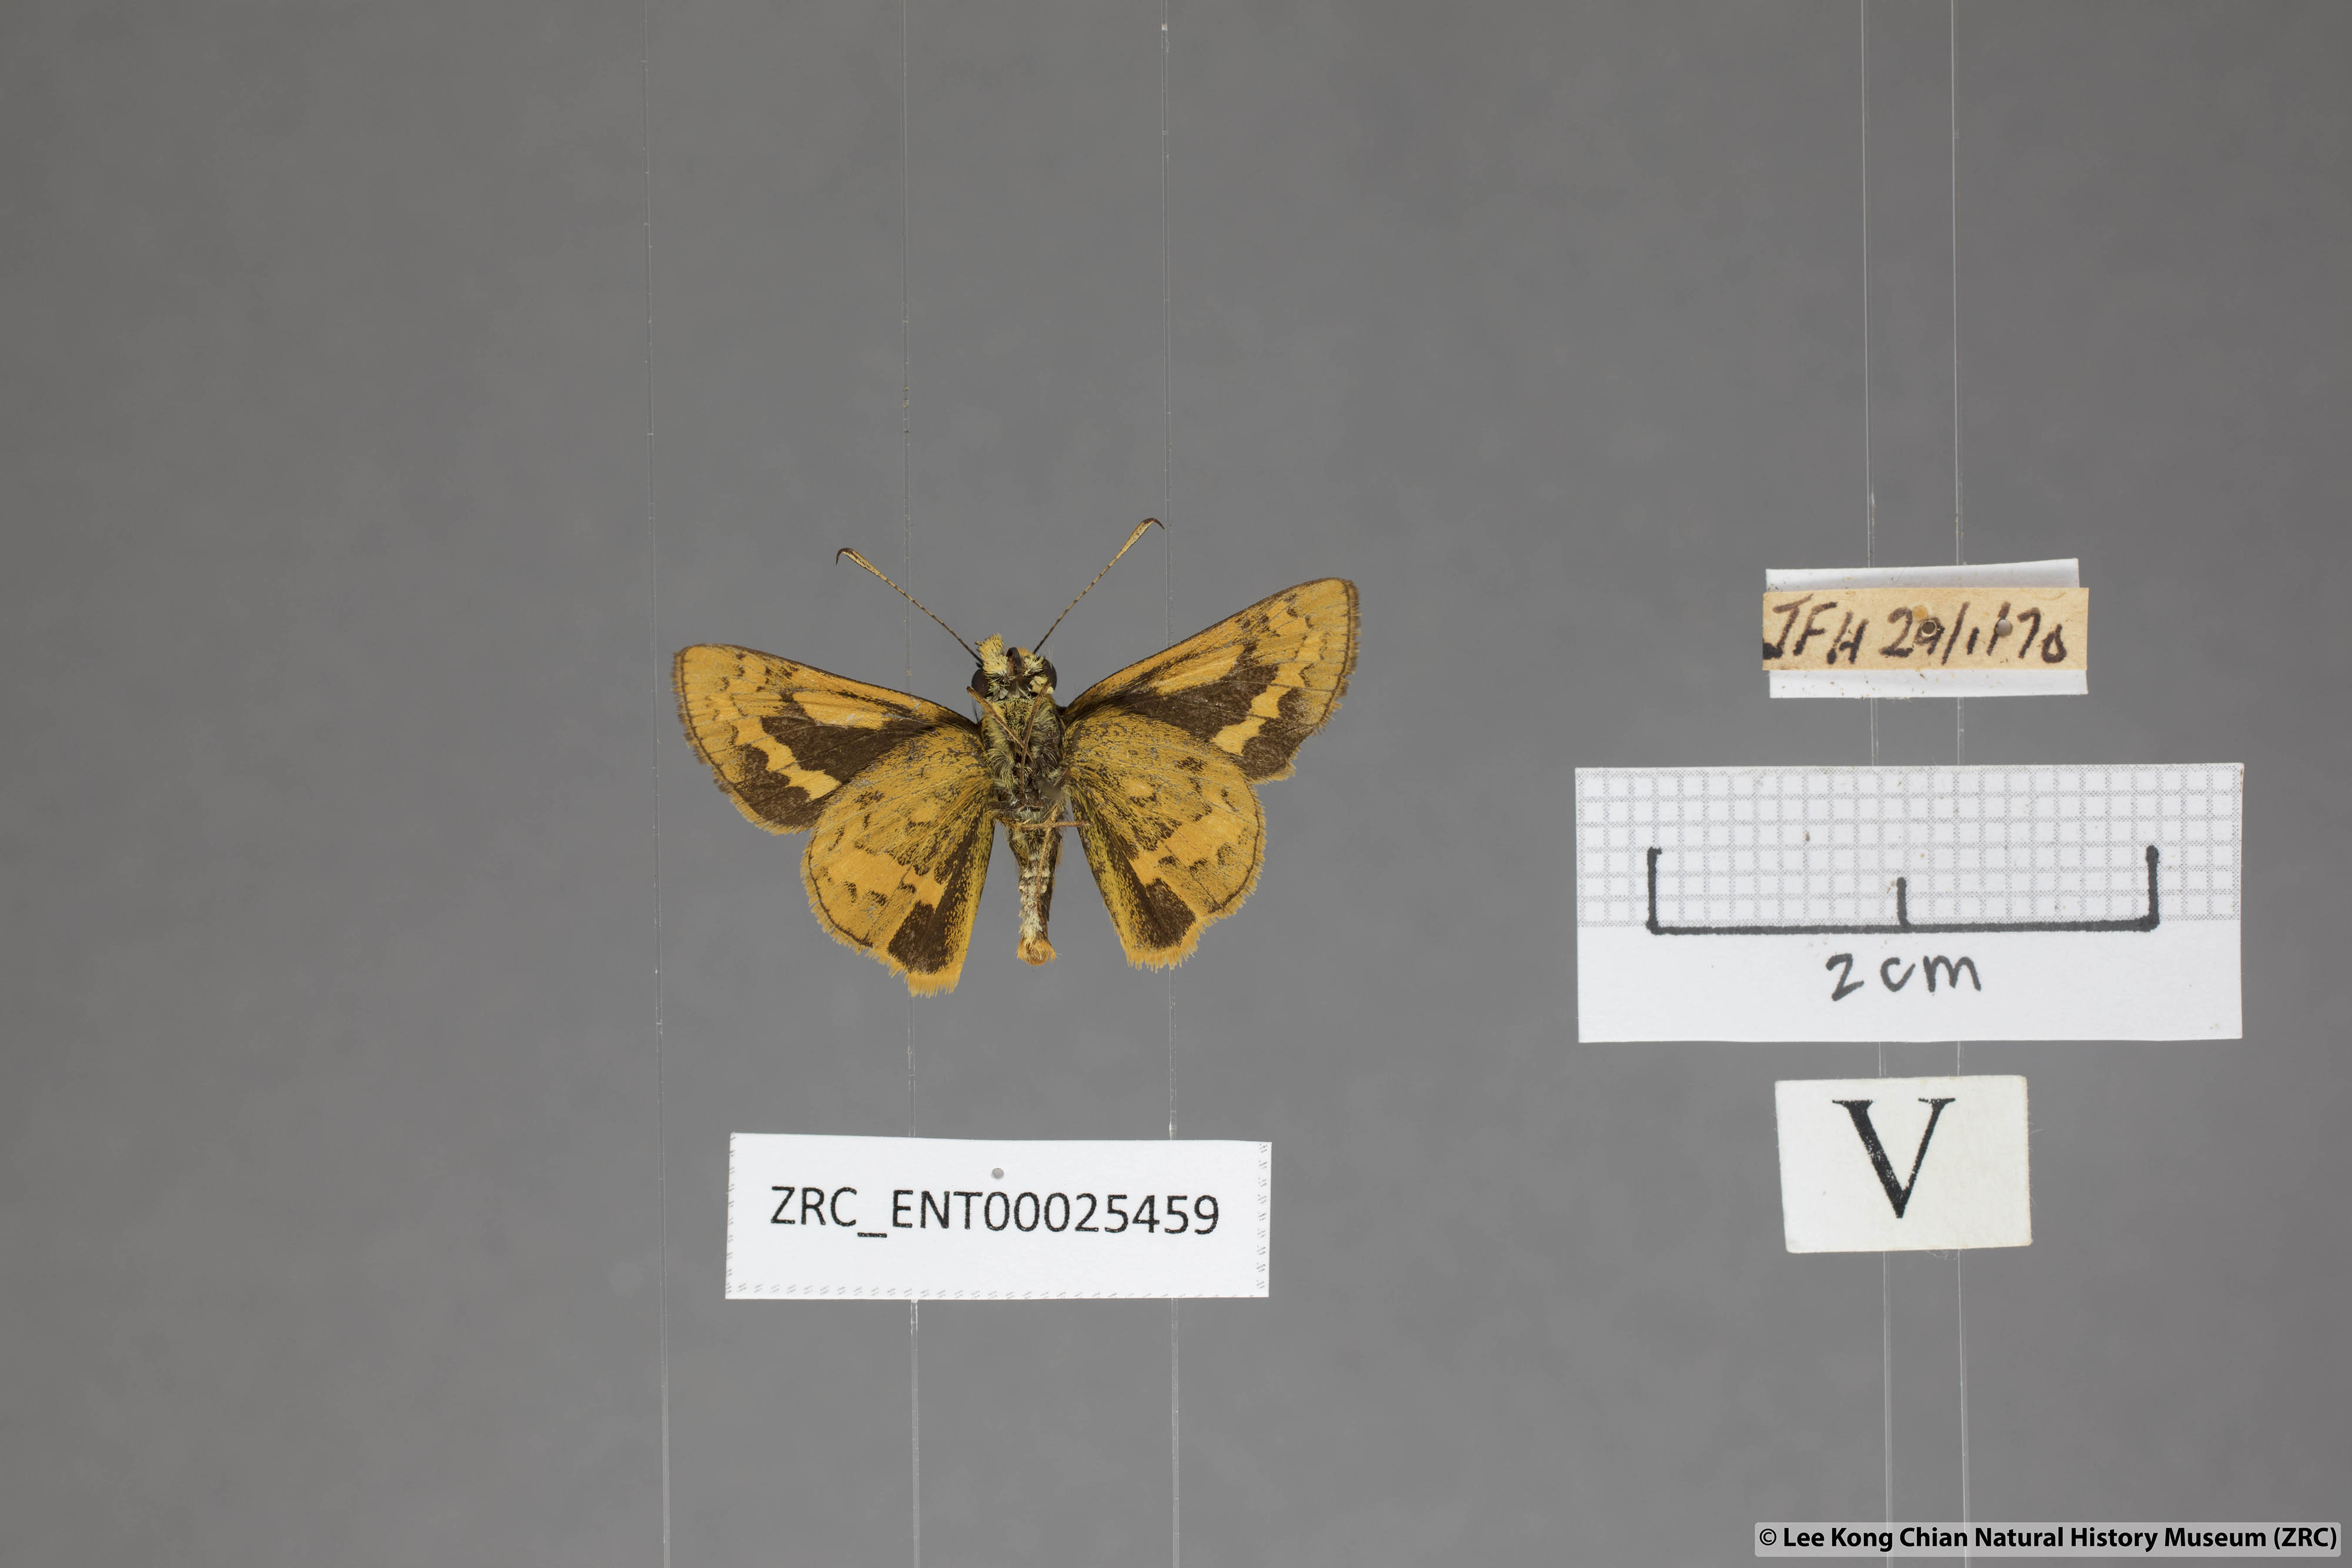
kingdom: Animalia
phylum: Arthropoda
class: Insecta
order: Lepidoptera
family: Hesperiidae
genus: Potanthus
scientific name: Potanthus rectifasciata
